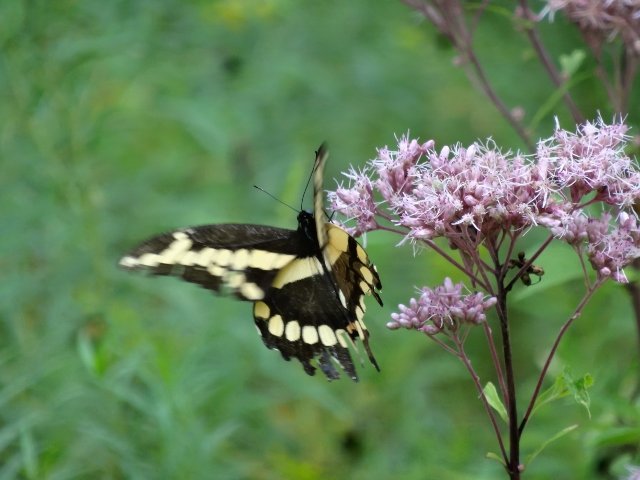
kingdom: Animalia
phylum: Arthropoda
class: Insecta
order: Lepidoptera
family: Papilionidae
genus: Papilio
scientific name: Papilio cresphontes
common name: Eastern Giant Swallowtail
